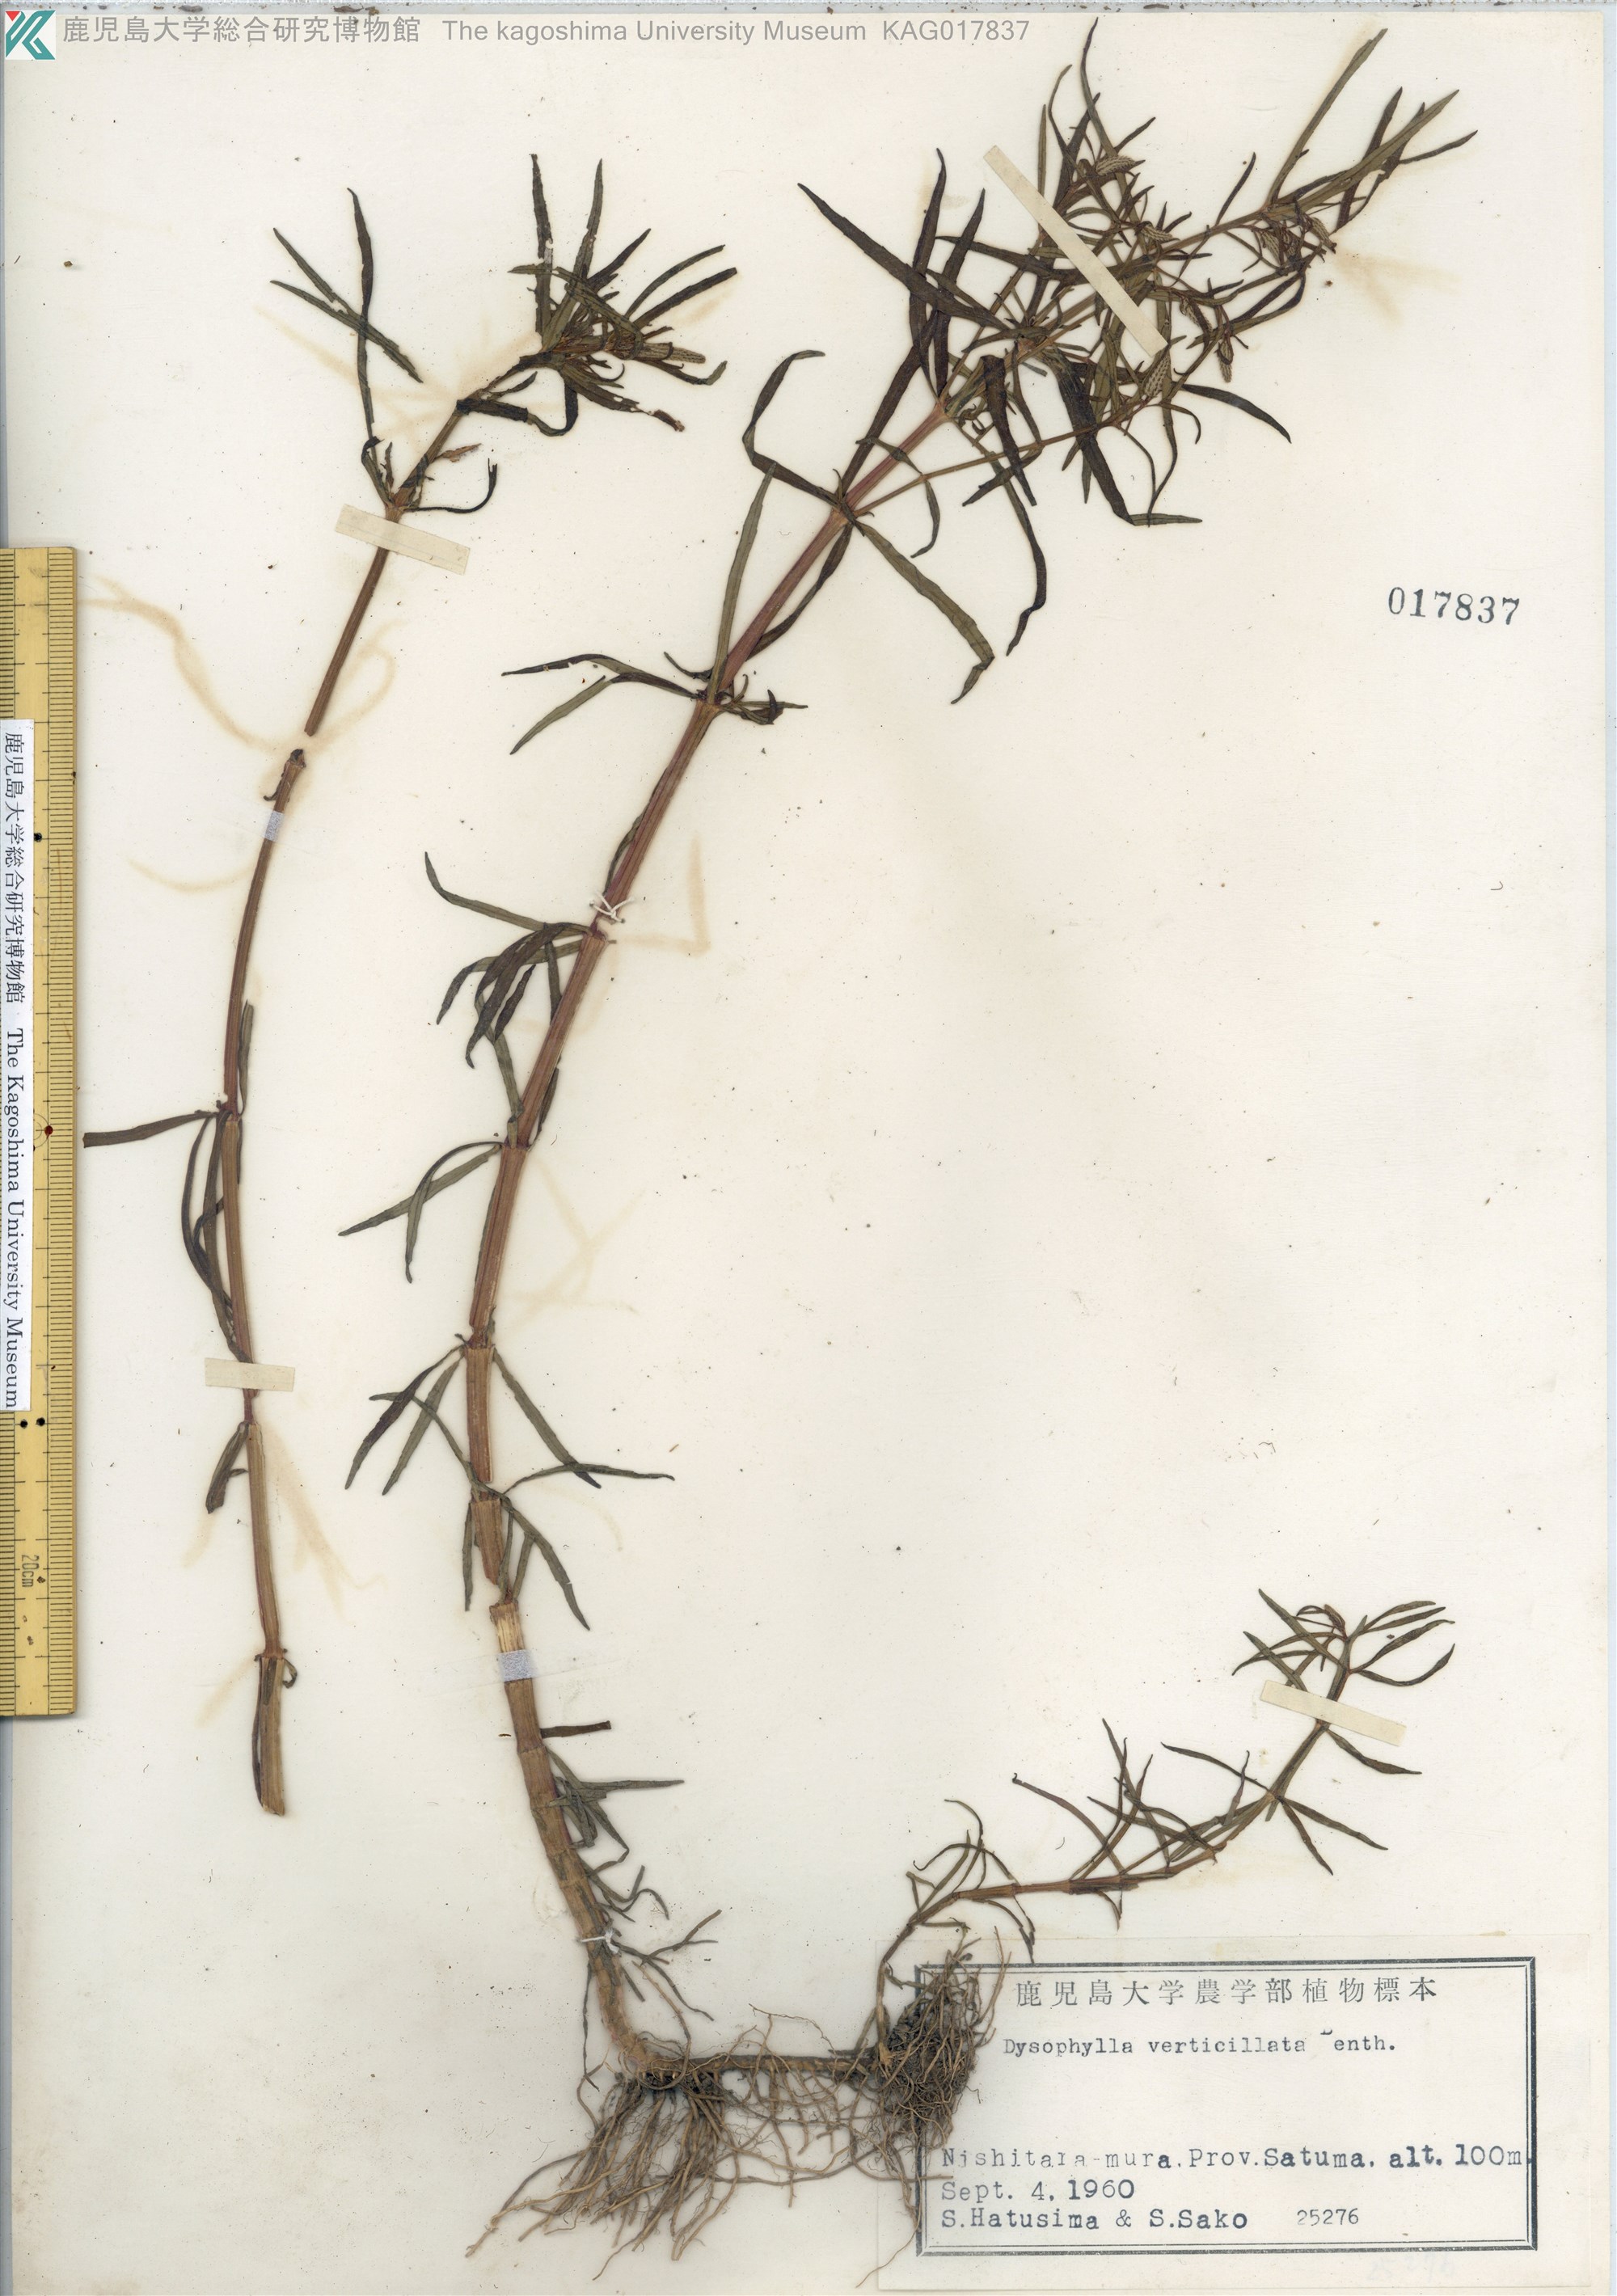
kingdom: Plantae
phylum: Tracheophyta
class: Magnoliopsida
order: Lamiales
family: Lamiaceae
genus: Pogostemon
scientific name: Pogostemon stellatus
